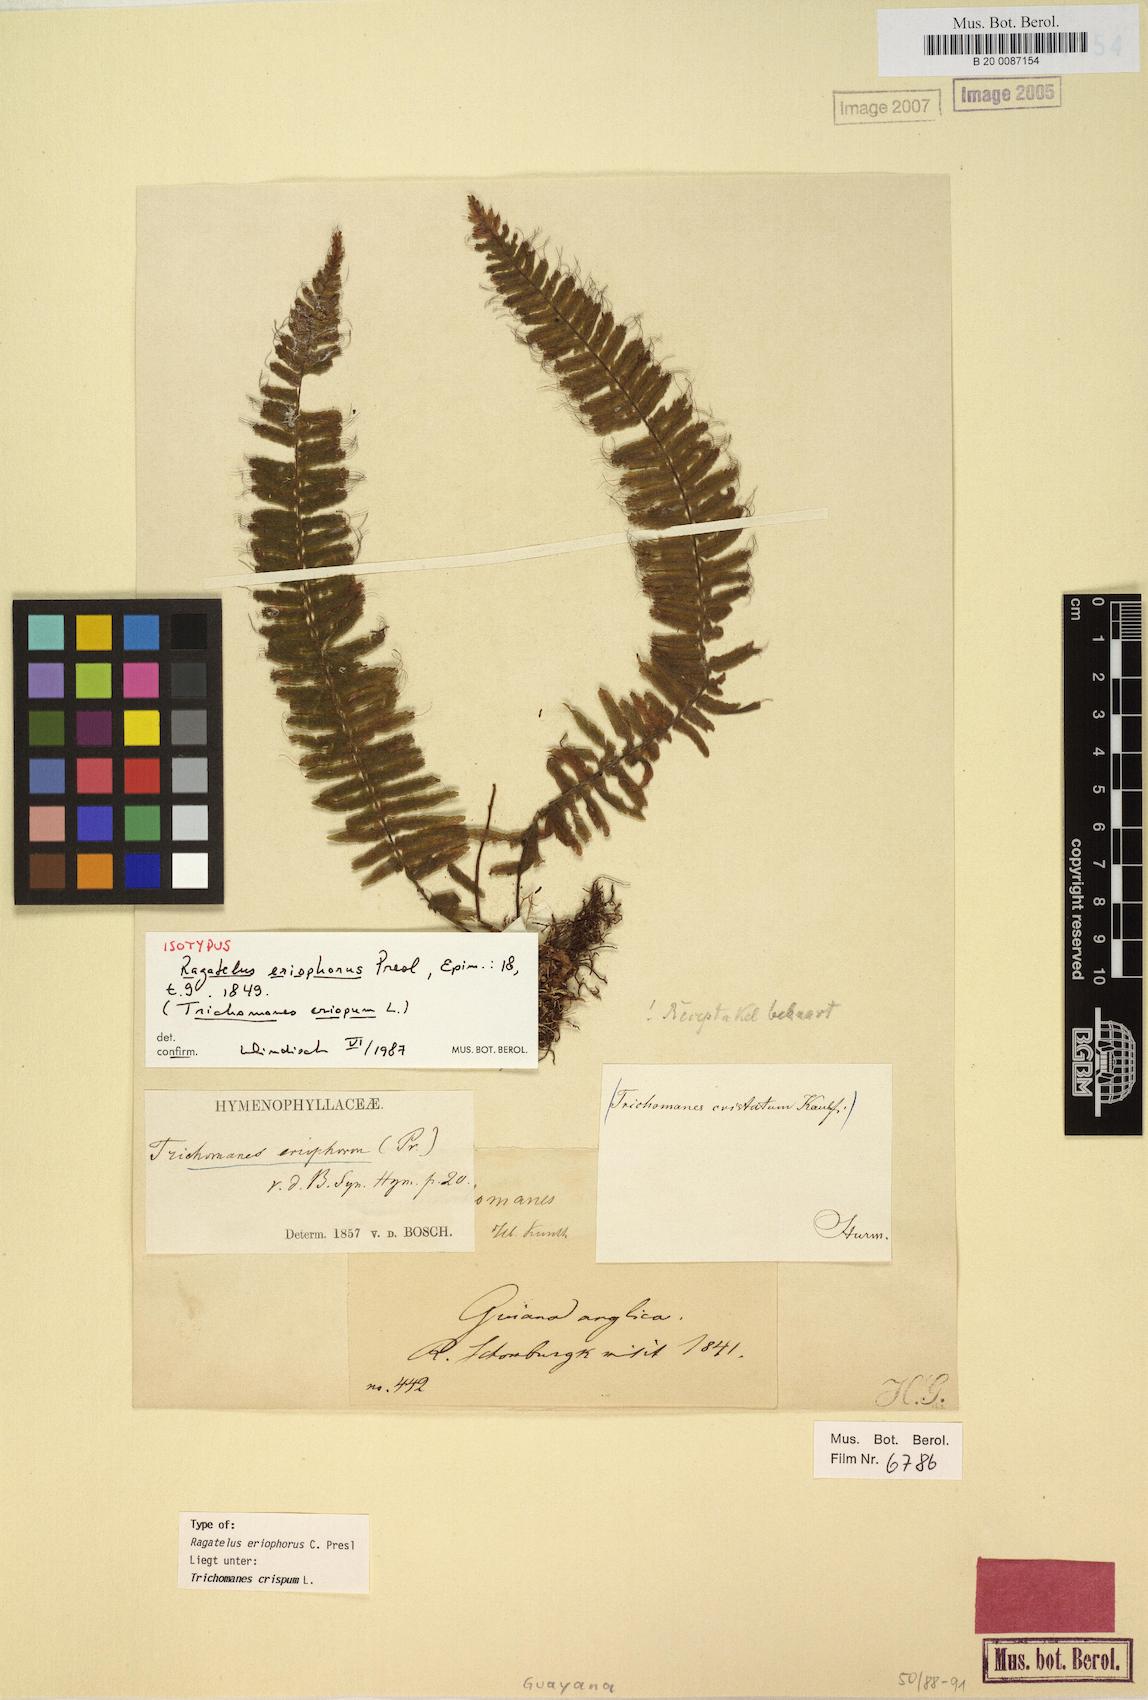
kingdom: Plantae
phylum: Tracheophyta
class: Polypodiopsida
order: Hymenophyllales
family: Hymenophyllaceae
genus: Trichomanes
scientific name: Trichomanes crispum
